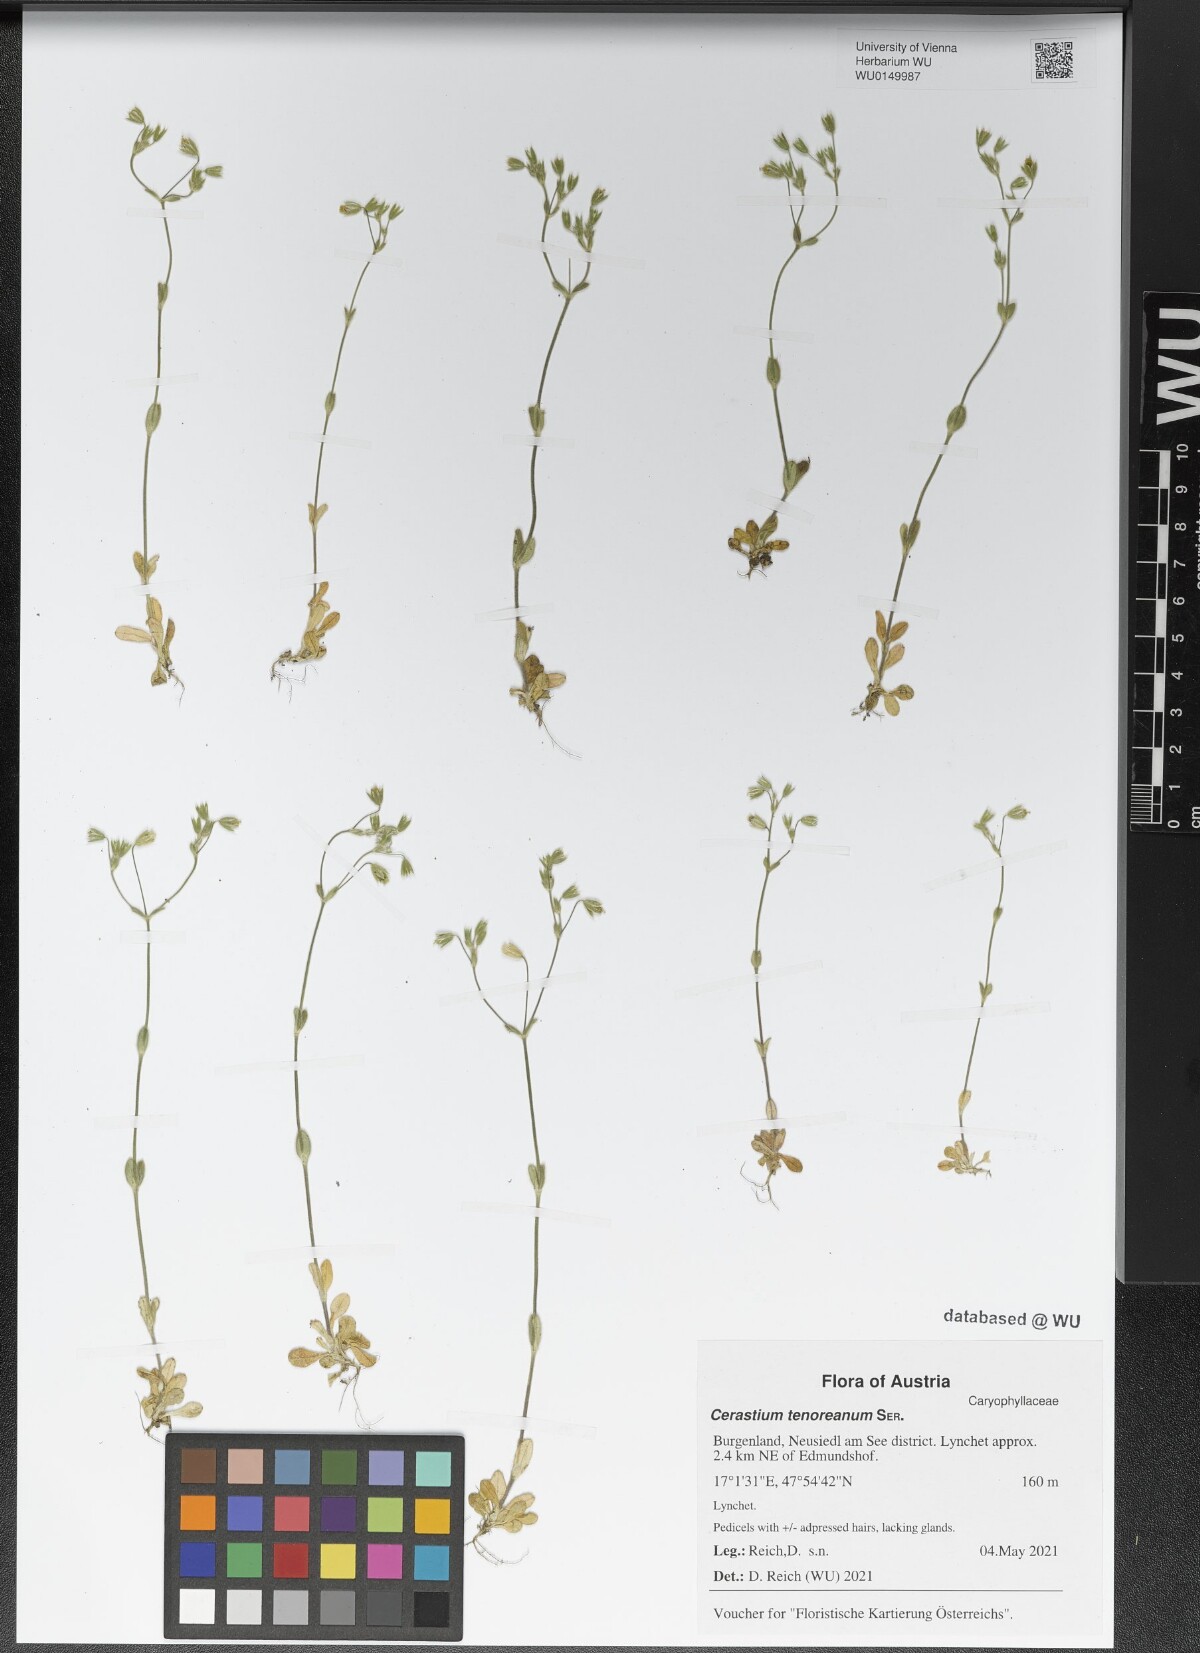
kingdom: Plantae
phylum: Tracheophyta
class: Magnoliopsida
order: Caryophyllales
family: Caryophyllaceae
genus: Cerastium
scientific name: Cerastium tenoreanum
